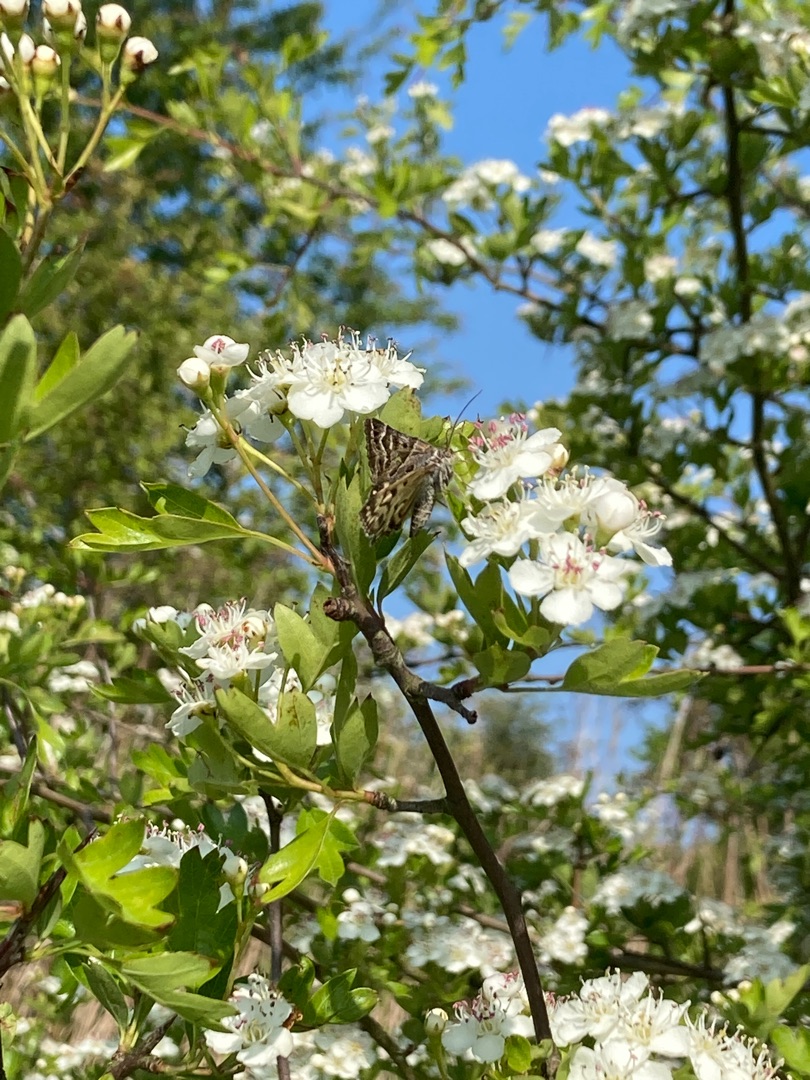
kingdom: Animalia
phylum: Arthropoda
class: Insecta
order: Lepidoptera
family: Erebidae
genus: Callistege
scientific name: Callistege mi
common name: Marmoreret kløverugle
